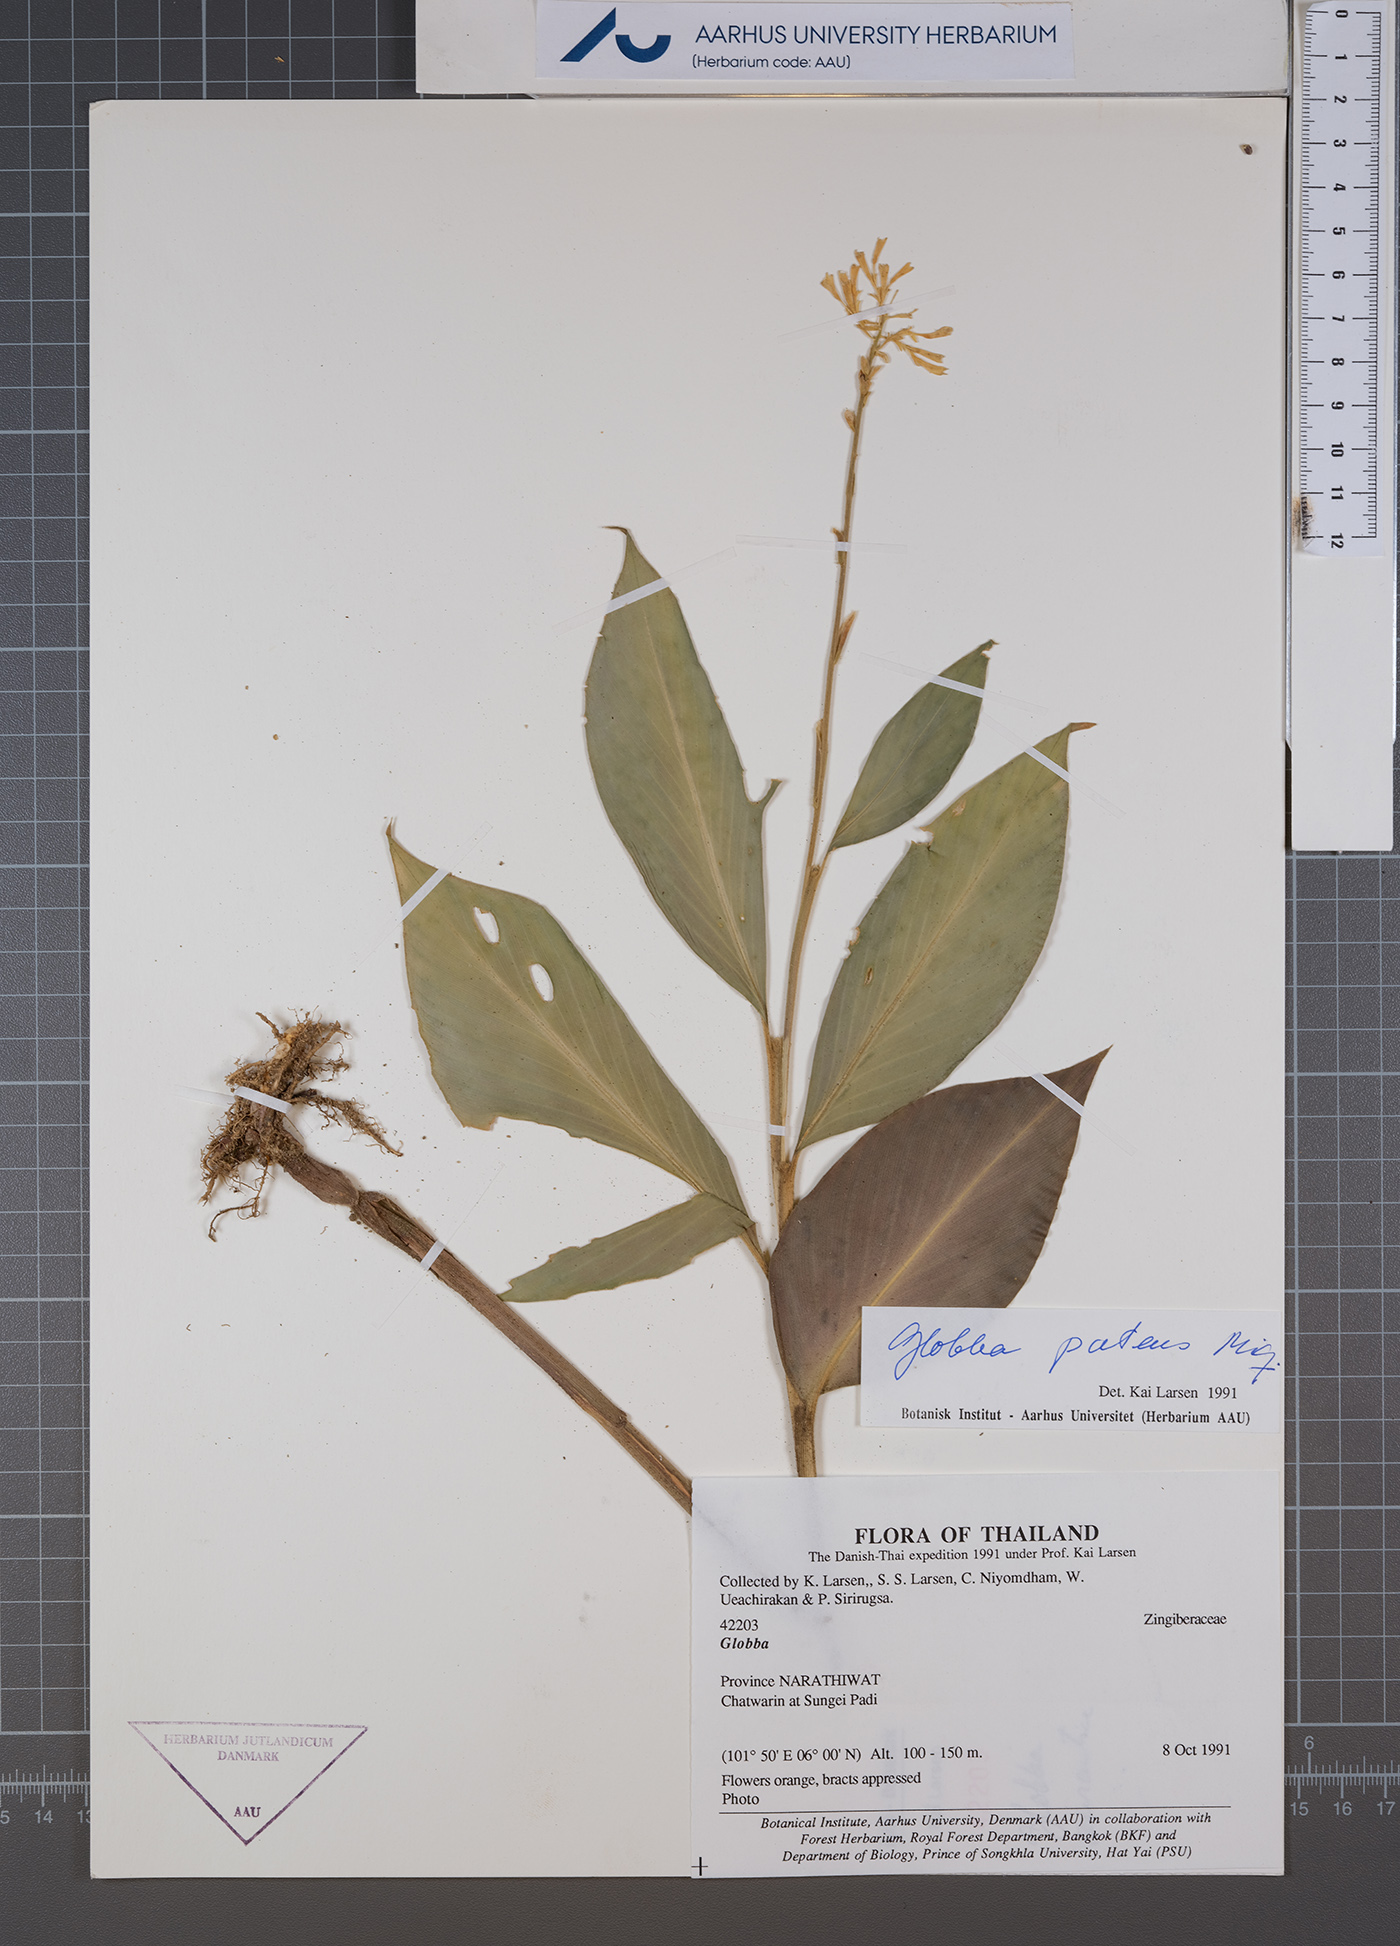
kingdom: Plantae
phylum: Tracheophyta
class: Liliopsida
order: Zingiberales
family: Zingiberaceae
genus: Globba
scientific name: Globba patens
